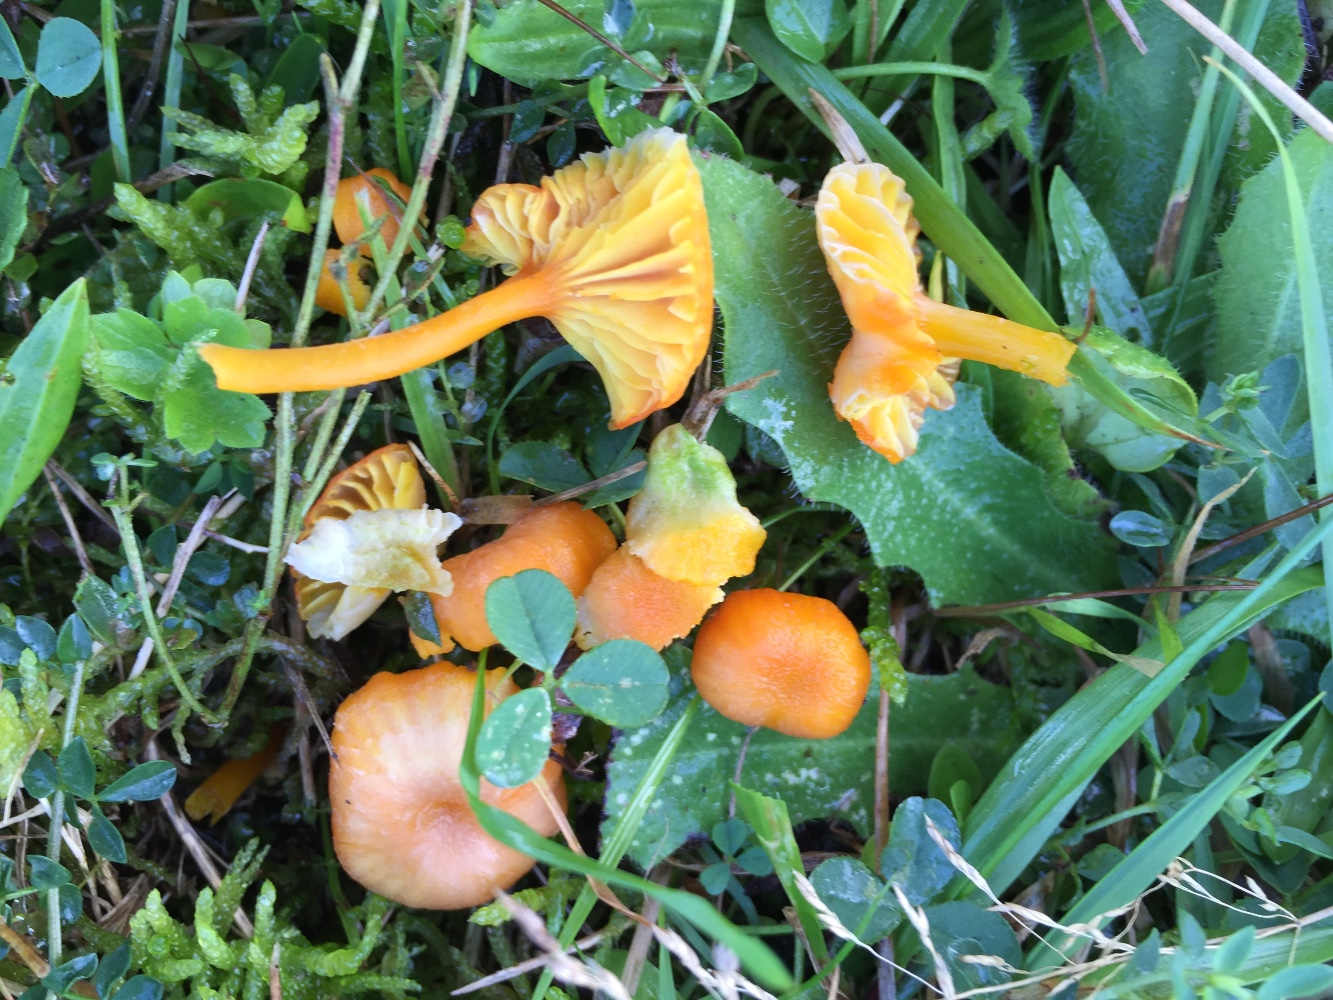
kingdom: Fungi
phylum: Basidiomycota
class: Agaricomycetes
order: Agaricales
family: Hygrophoraceae
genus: Hygrocybe
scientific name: Hygrocybe cantharellus
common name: kantarel-vokshat
